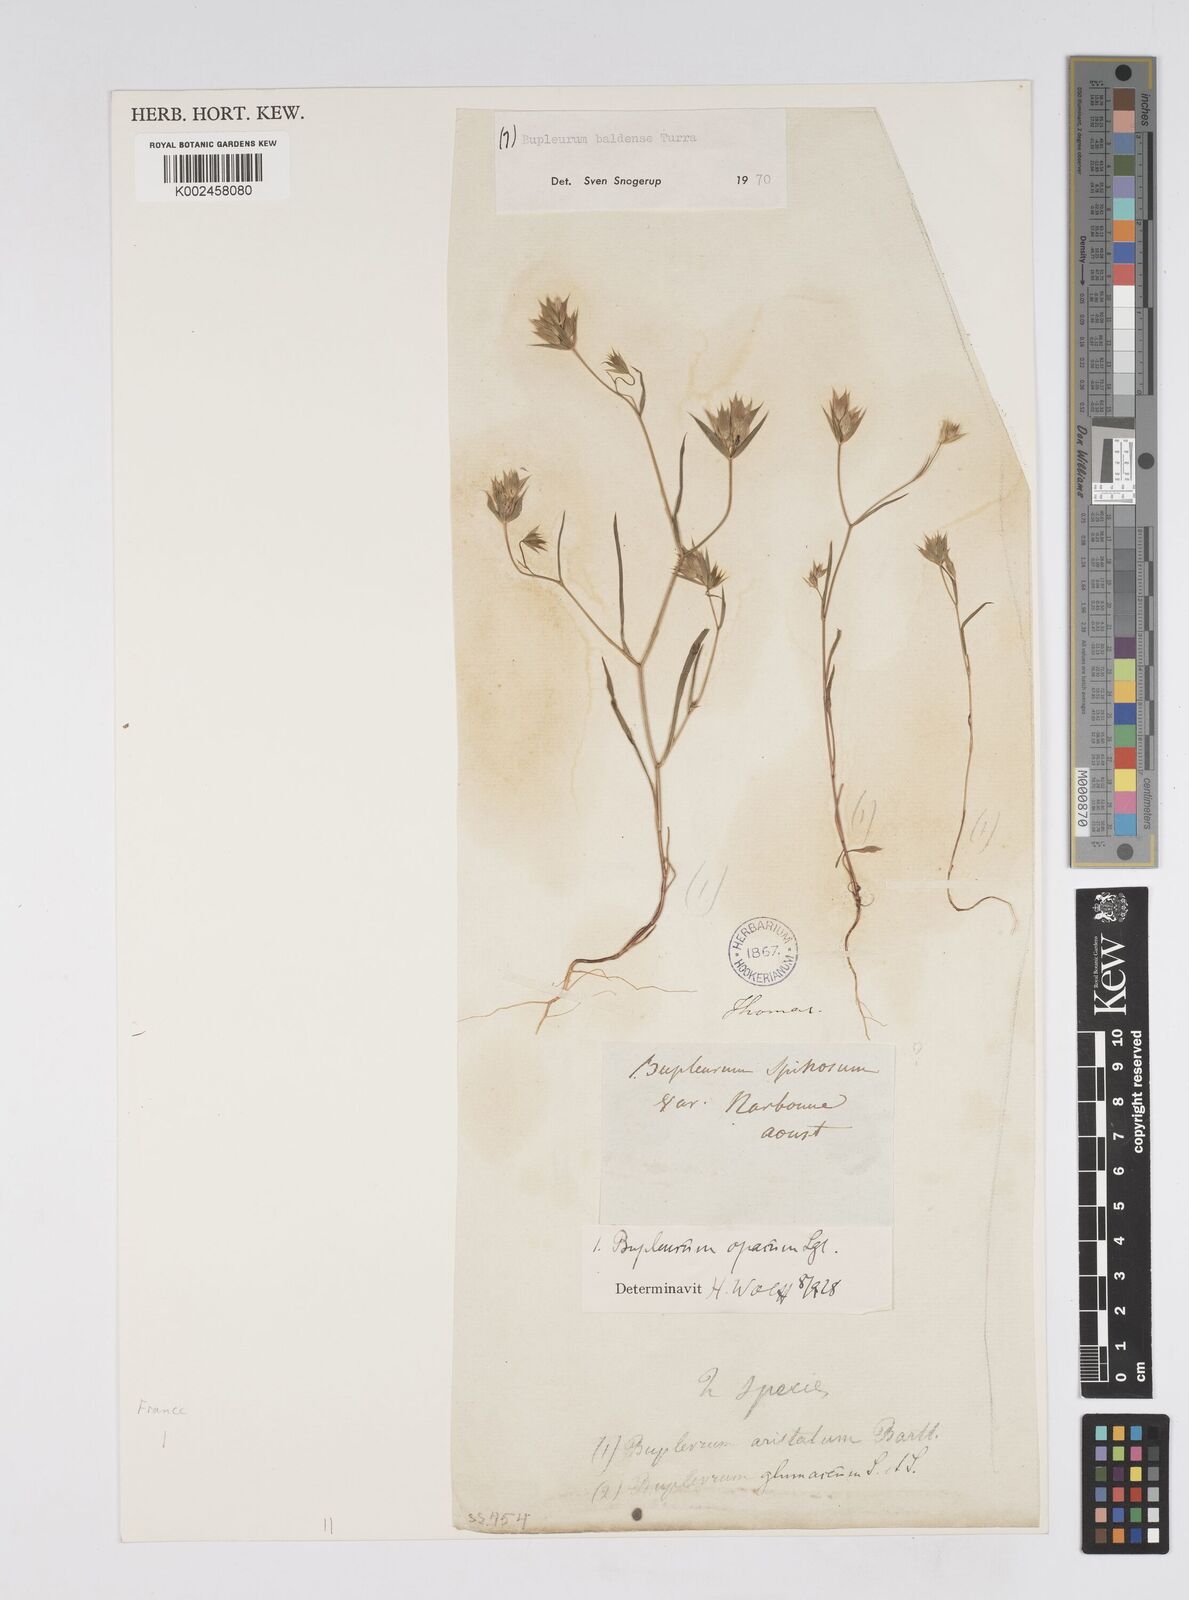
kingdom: Plantae
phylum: Tracheophyta
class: Magnoliopsida
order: Apiales
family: Apiaceae
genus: Bupleurum
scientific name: Bupleurum baldense
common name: Small hare's-ear
